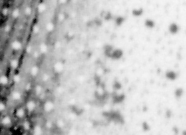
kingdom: Animalia
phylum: Chordata
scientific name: Chordata
